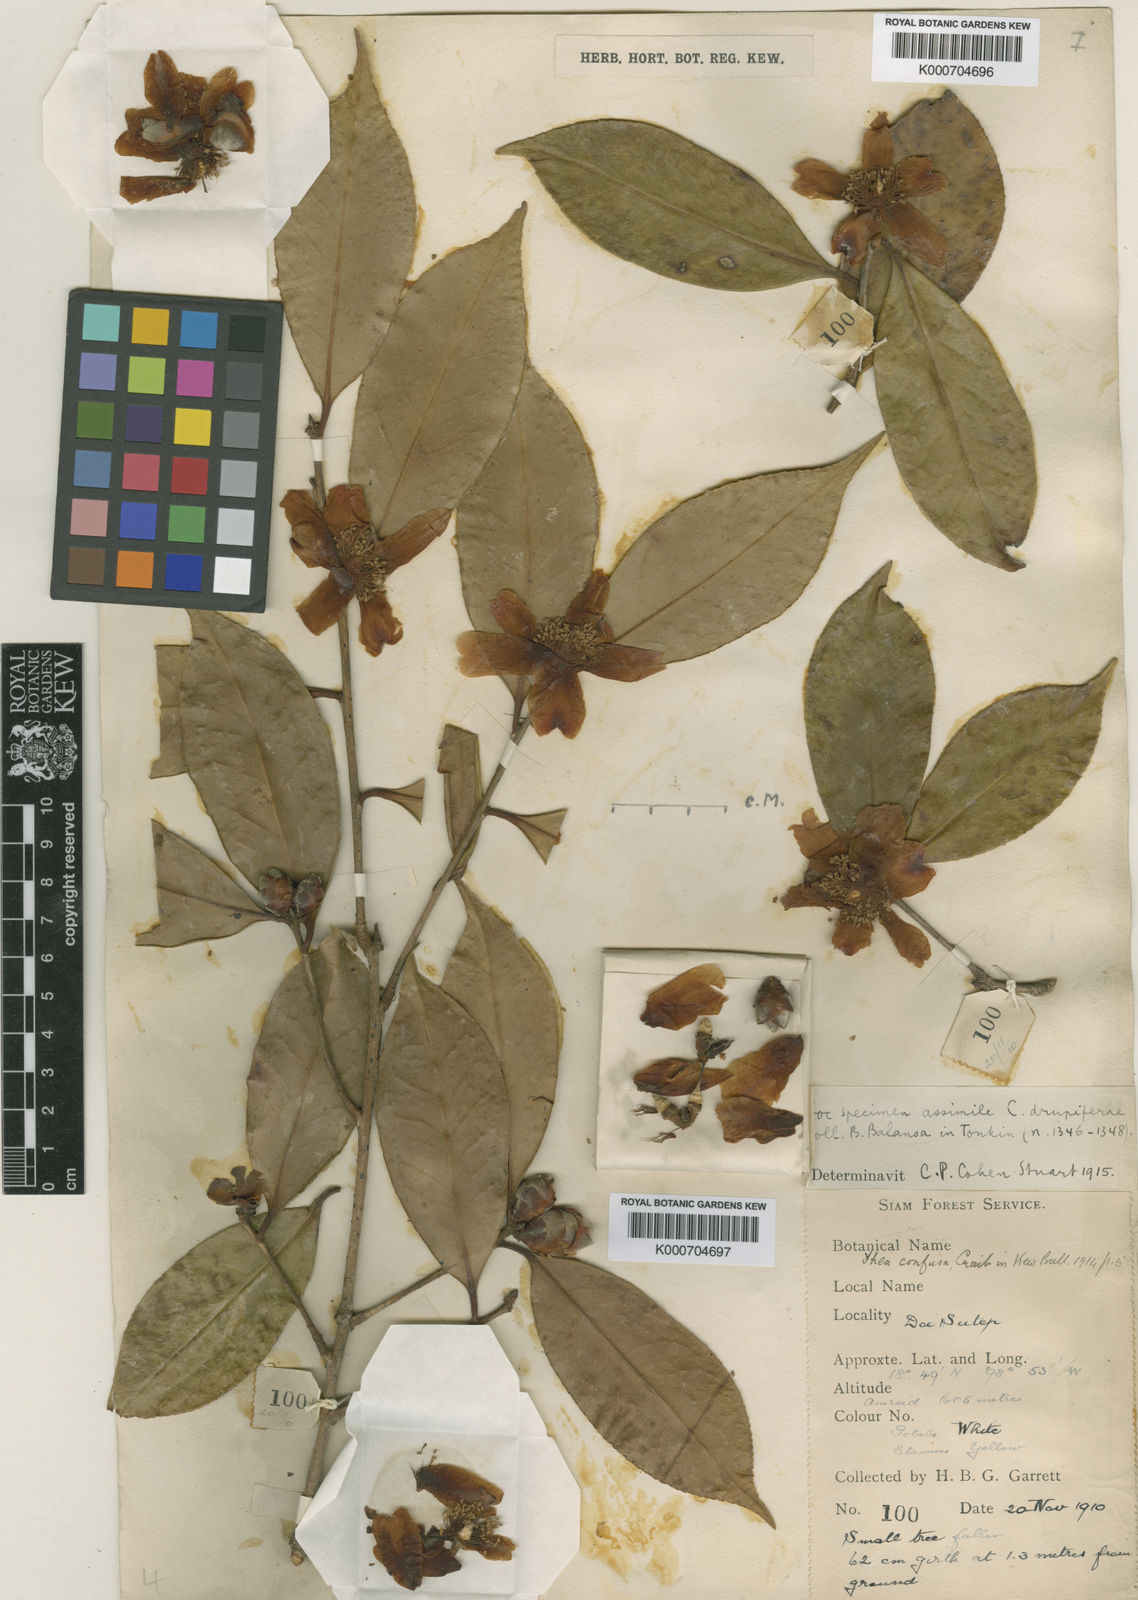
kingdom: Plantae
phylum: Tracheophyta
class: Magnoliopsida
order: Ericales
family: Theaceae
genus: Camellia
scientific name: Camellia oleifera
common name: Tea-oil-plant
